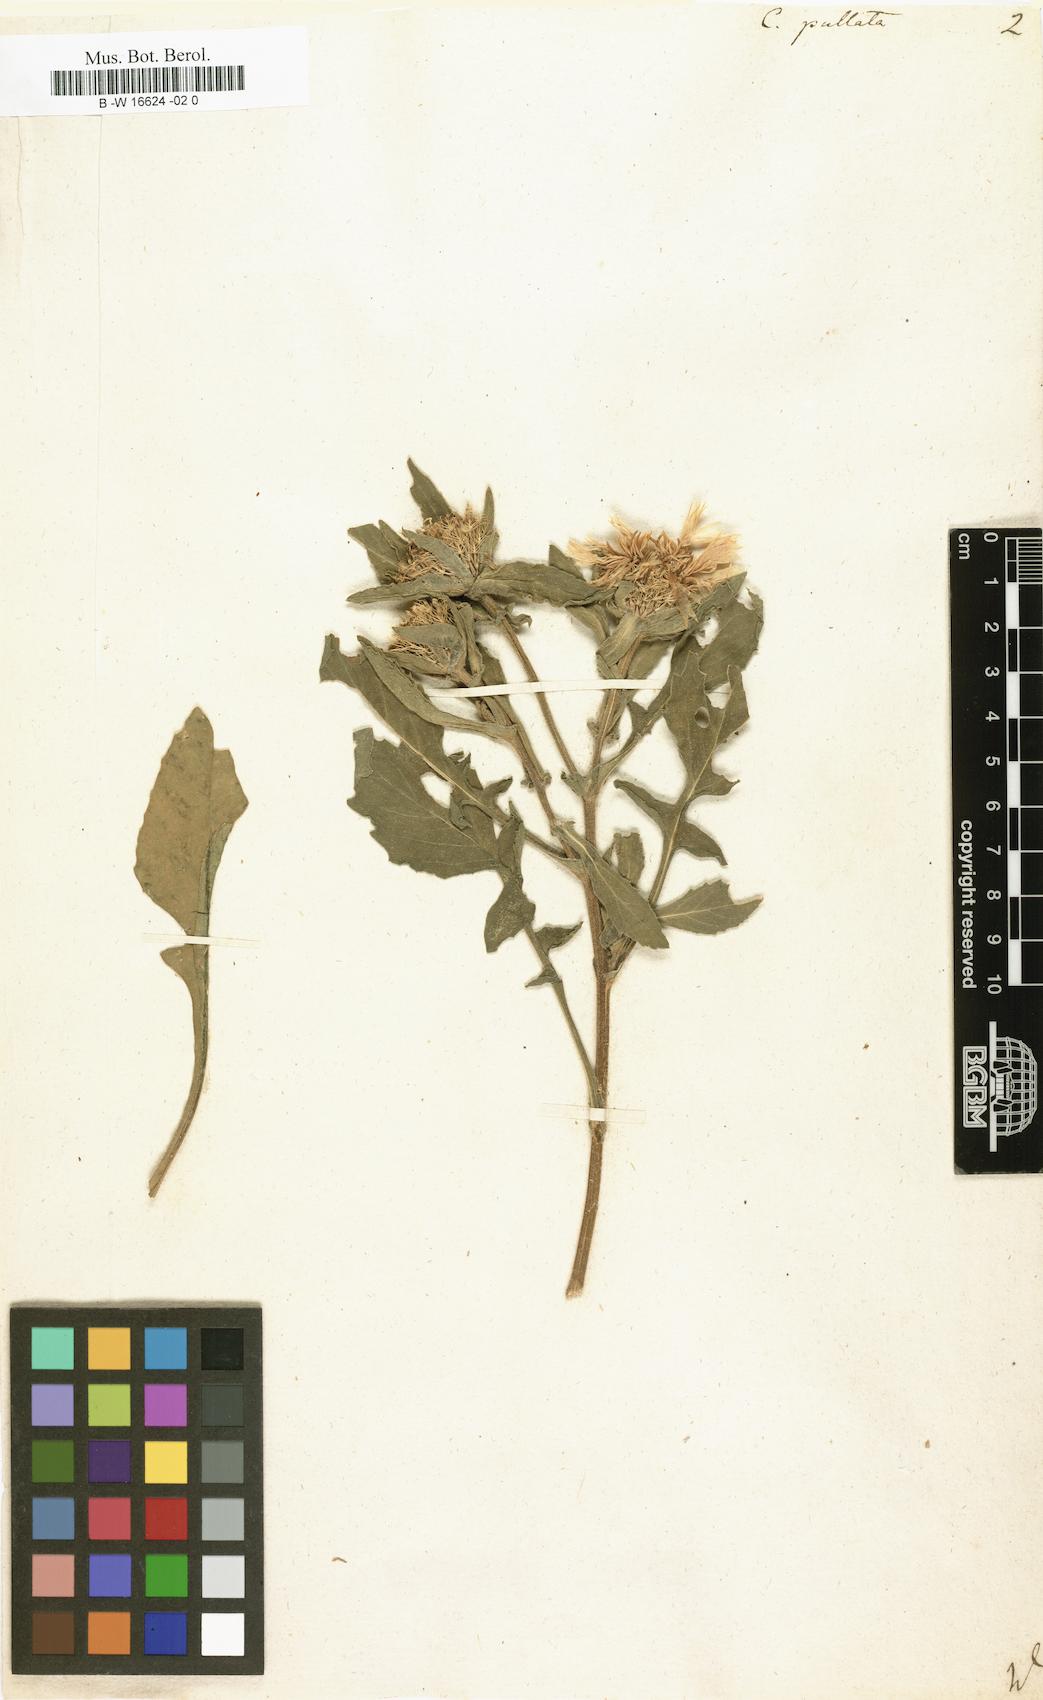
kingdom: Plantae
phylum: Tracheophyta
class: Magnoliopsida
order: Asterales
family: Asteraceae
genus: Centaurea
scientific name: Centaurea pullata
